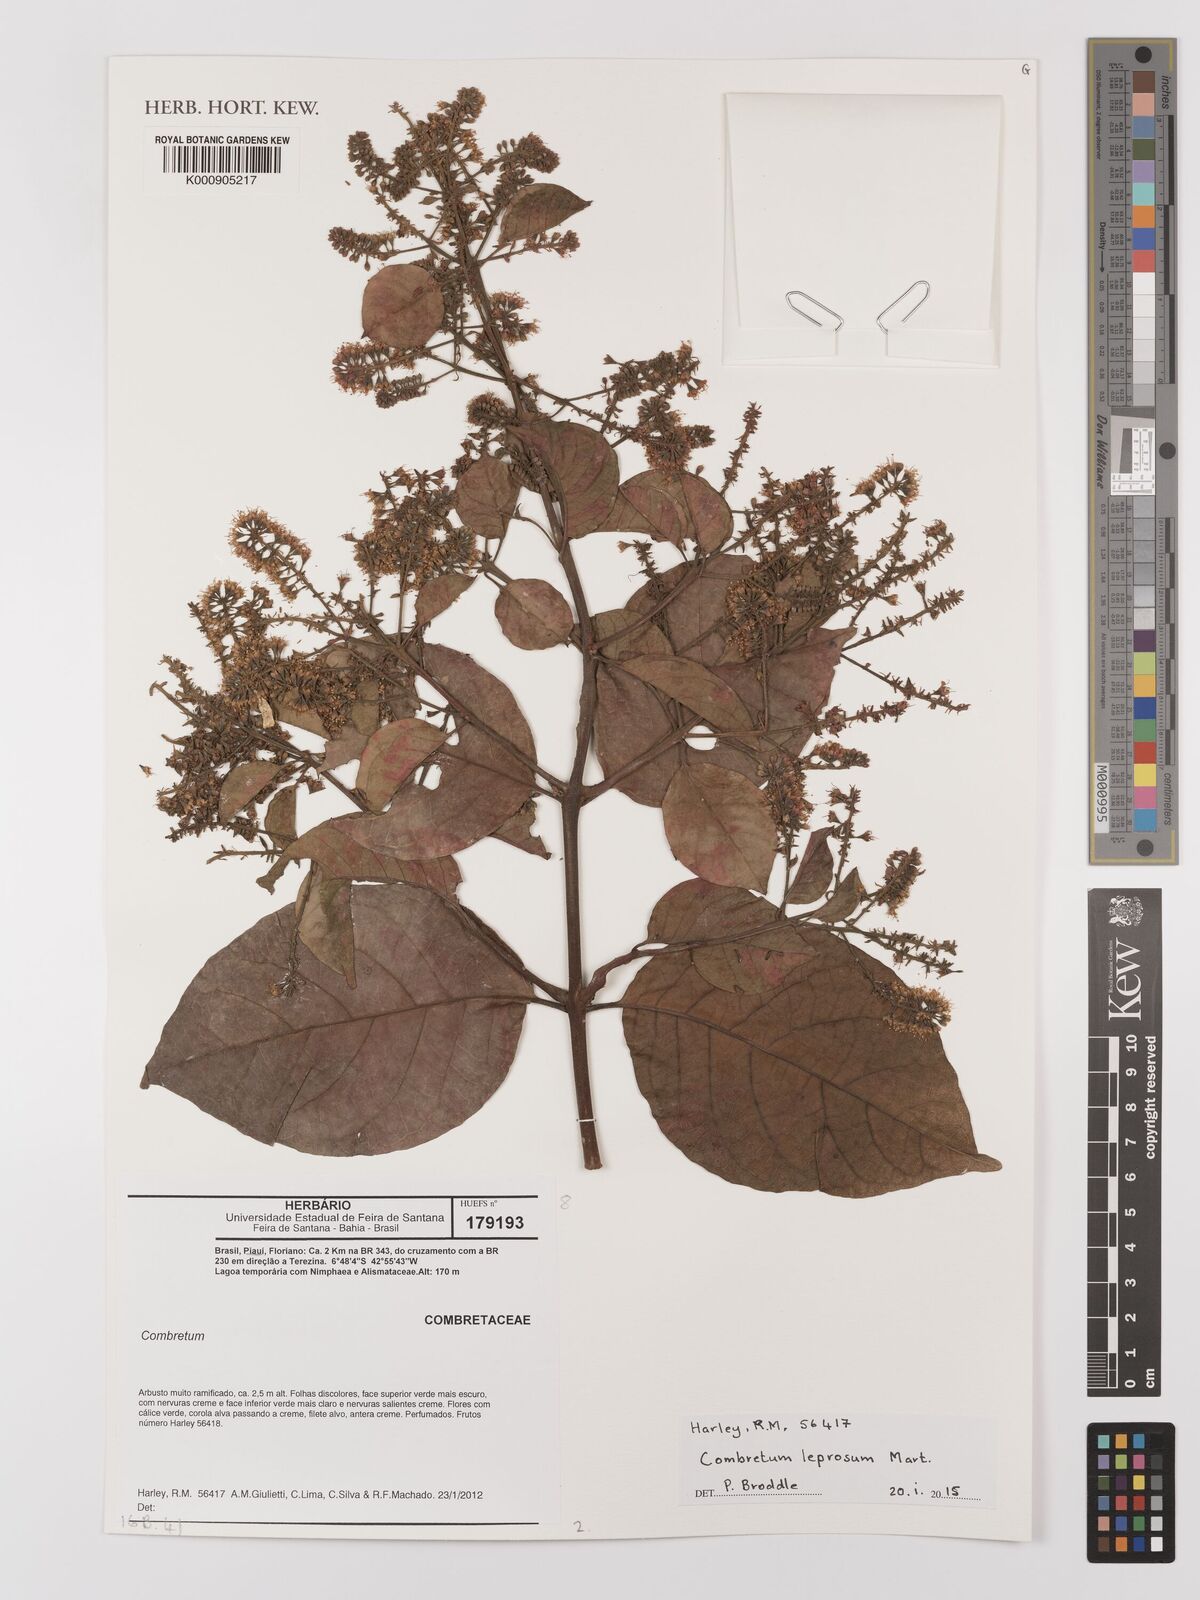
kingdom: Plantae
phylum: Tracheophyta
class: Magnoliopsida
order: Myrtales
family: Combretaceae
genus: Combretum
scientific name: Combretum leprosum
